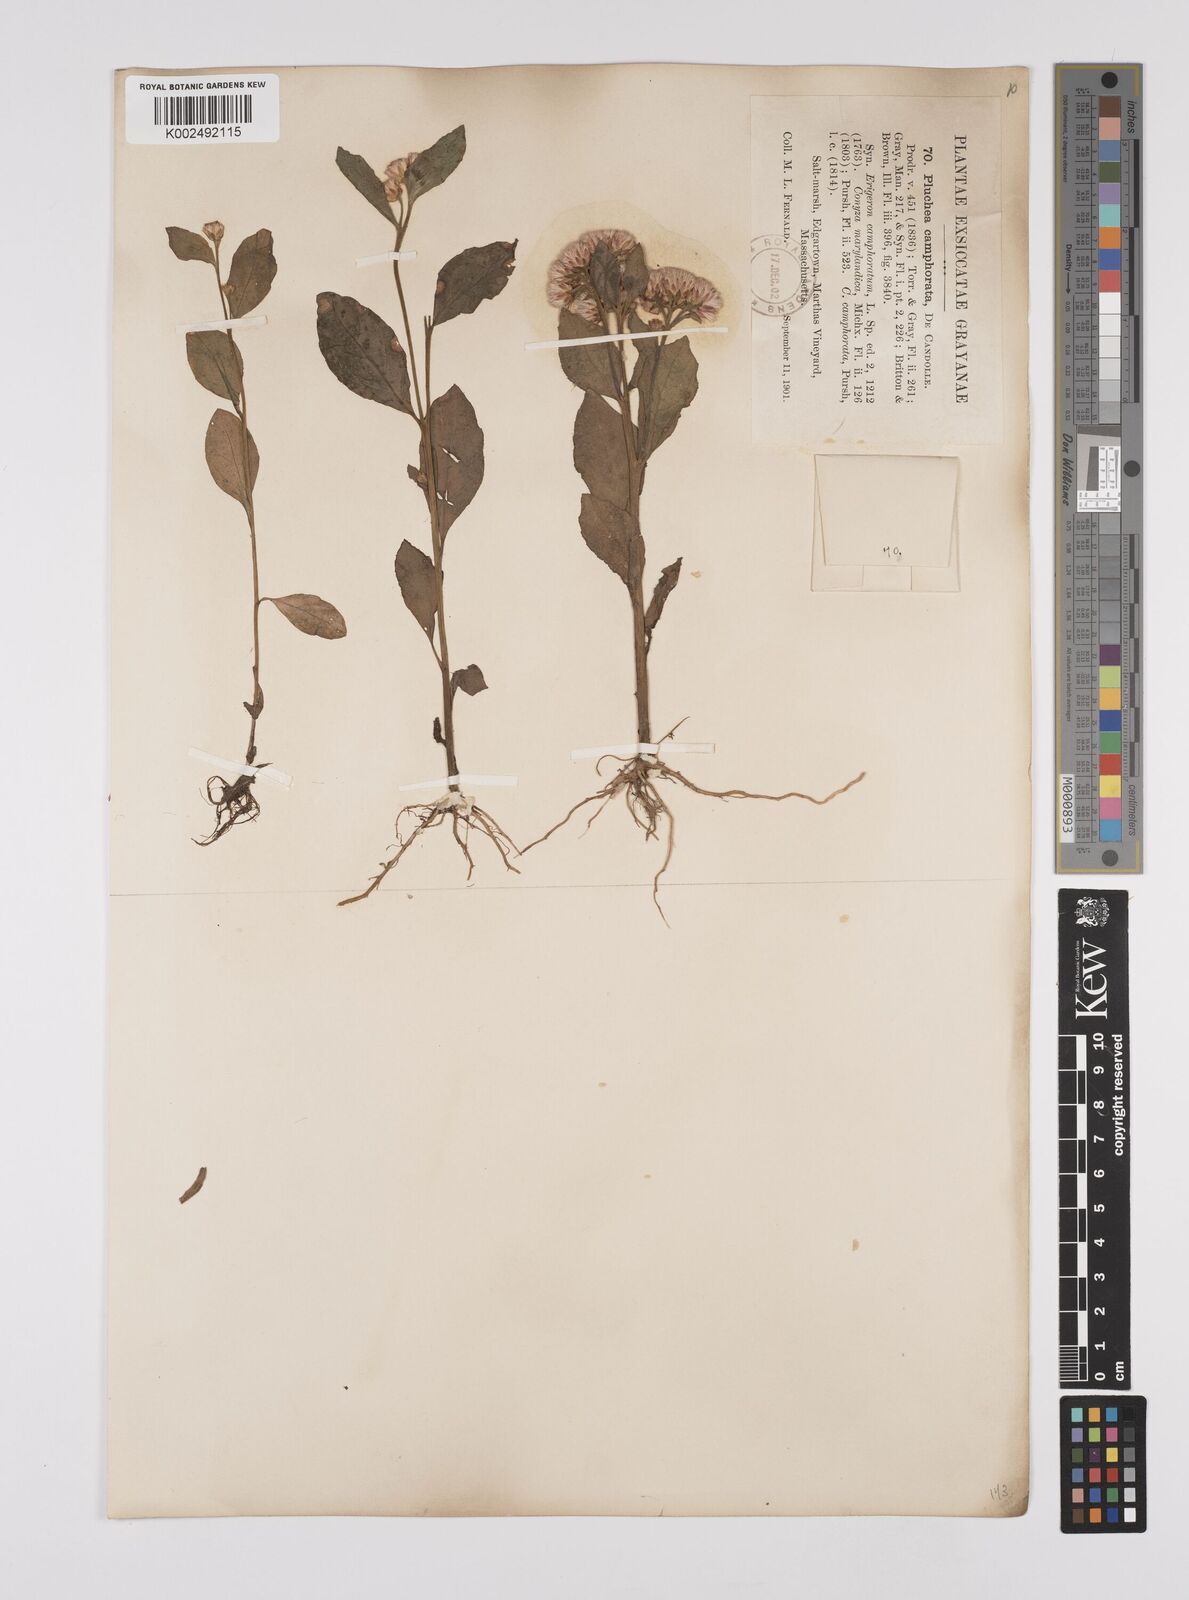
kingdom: Plantae
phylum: Tracheophyta
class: Magnoliopsida
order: Asterales
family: Asteraceae
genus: Pluchea
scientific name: Pluchea camphorata
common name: Camphor pluchea
